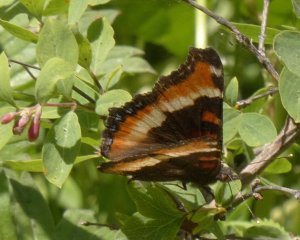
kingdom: Animalia
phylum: Arthropoda
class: Insecta
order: Lepidoptera
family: Nymphalidae
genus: Aglais
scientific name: Aglais milberti
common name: Milbert's Tortoiseshell
